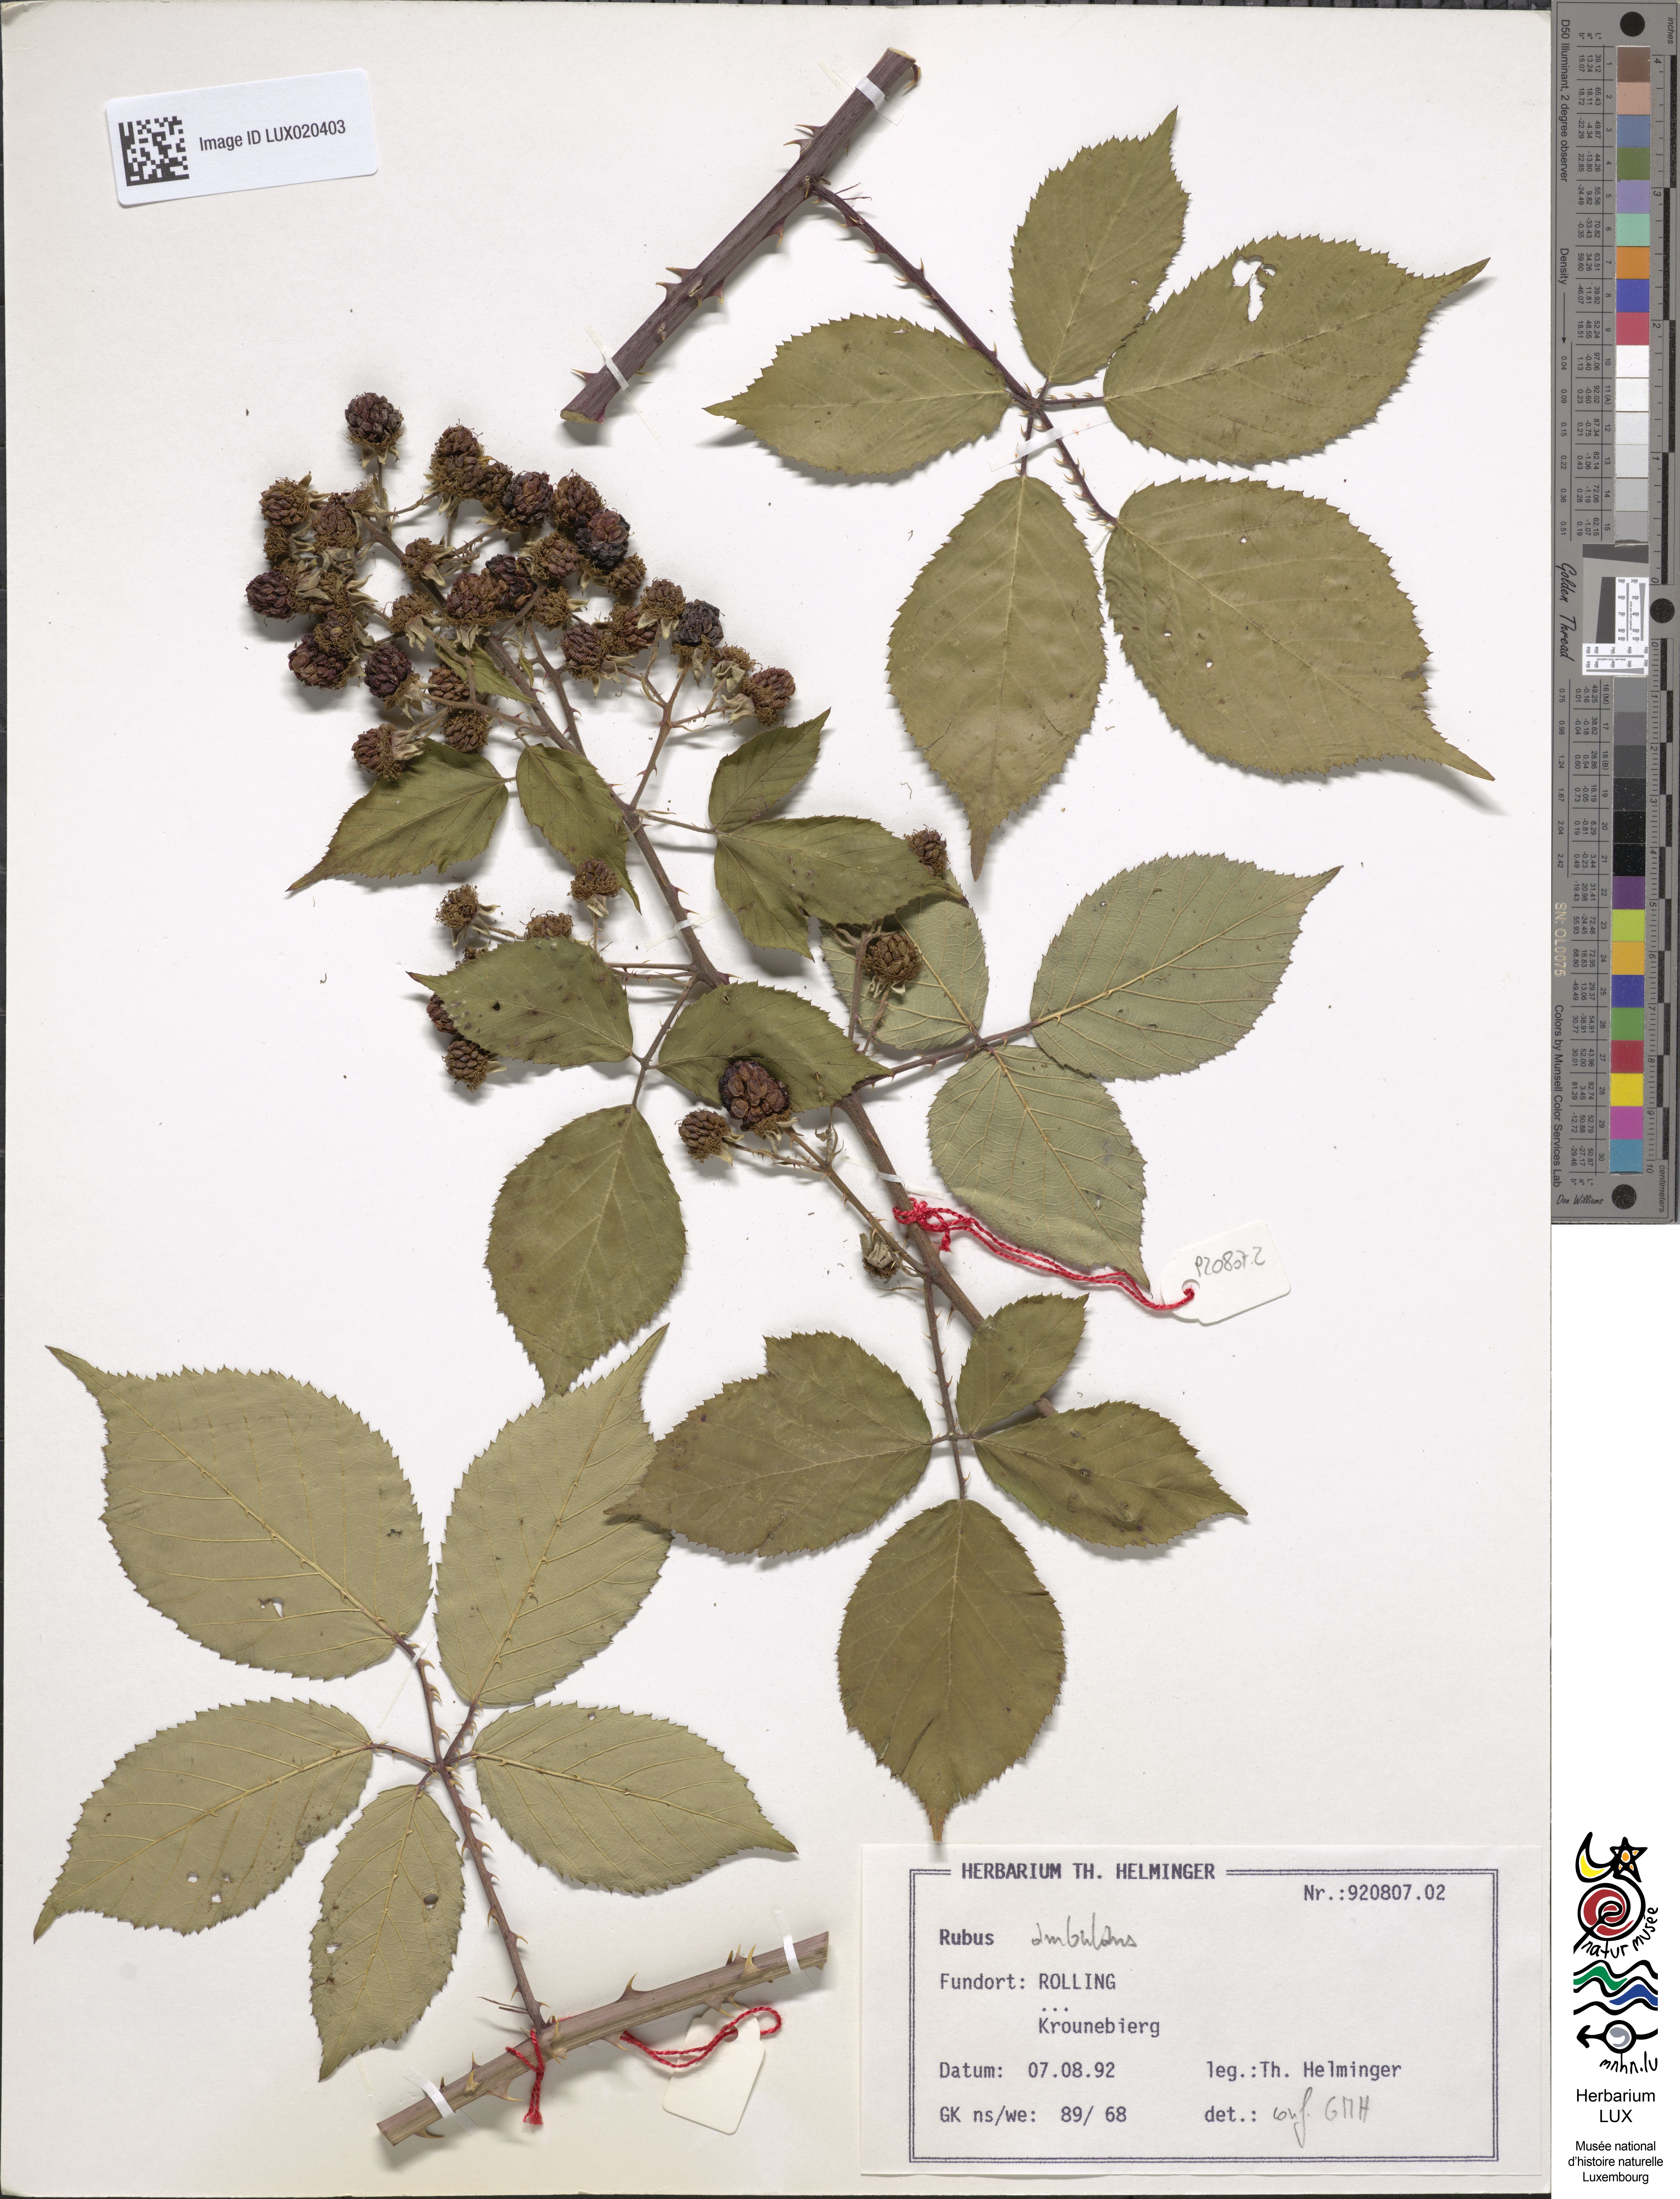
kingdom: Plantae
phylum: Tracheophyta
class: Magnoliopsida
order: Rosales
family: Rosaceae
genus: Rubus
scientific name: Rubus gremlii
